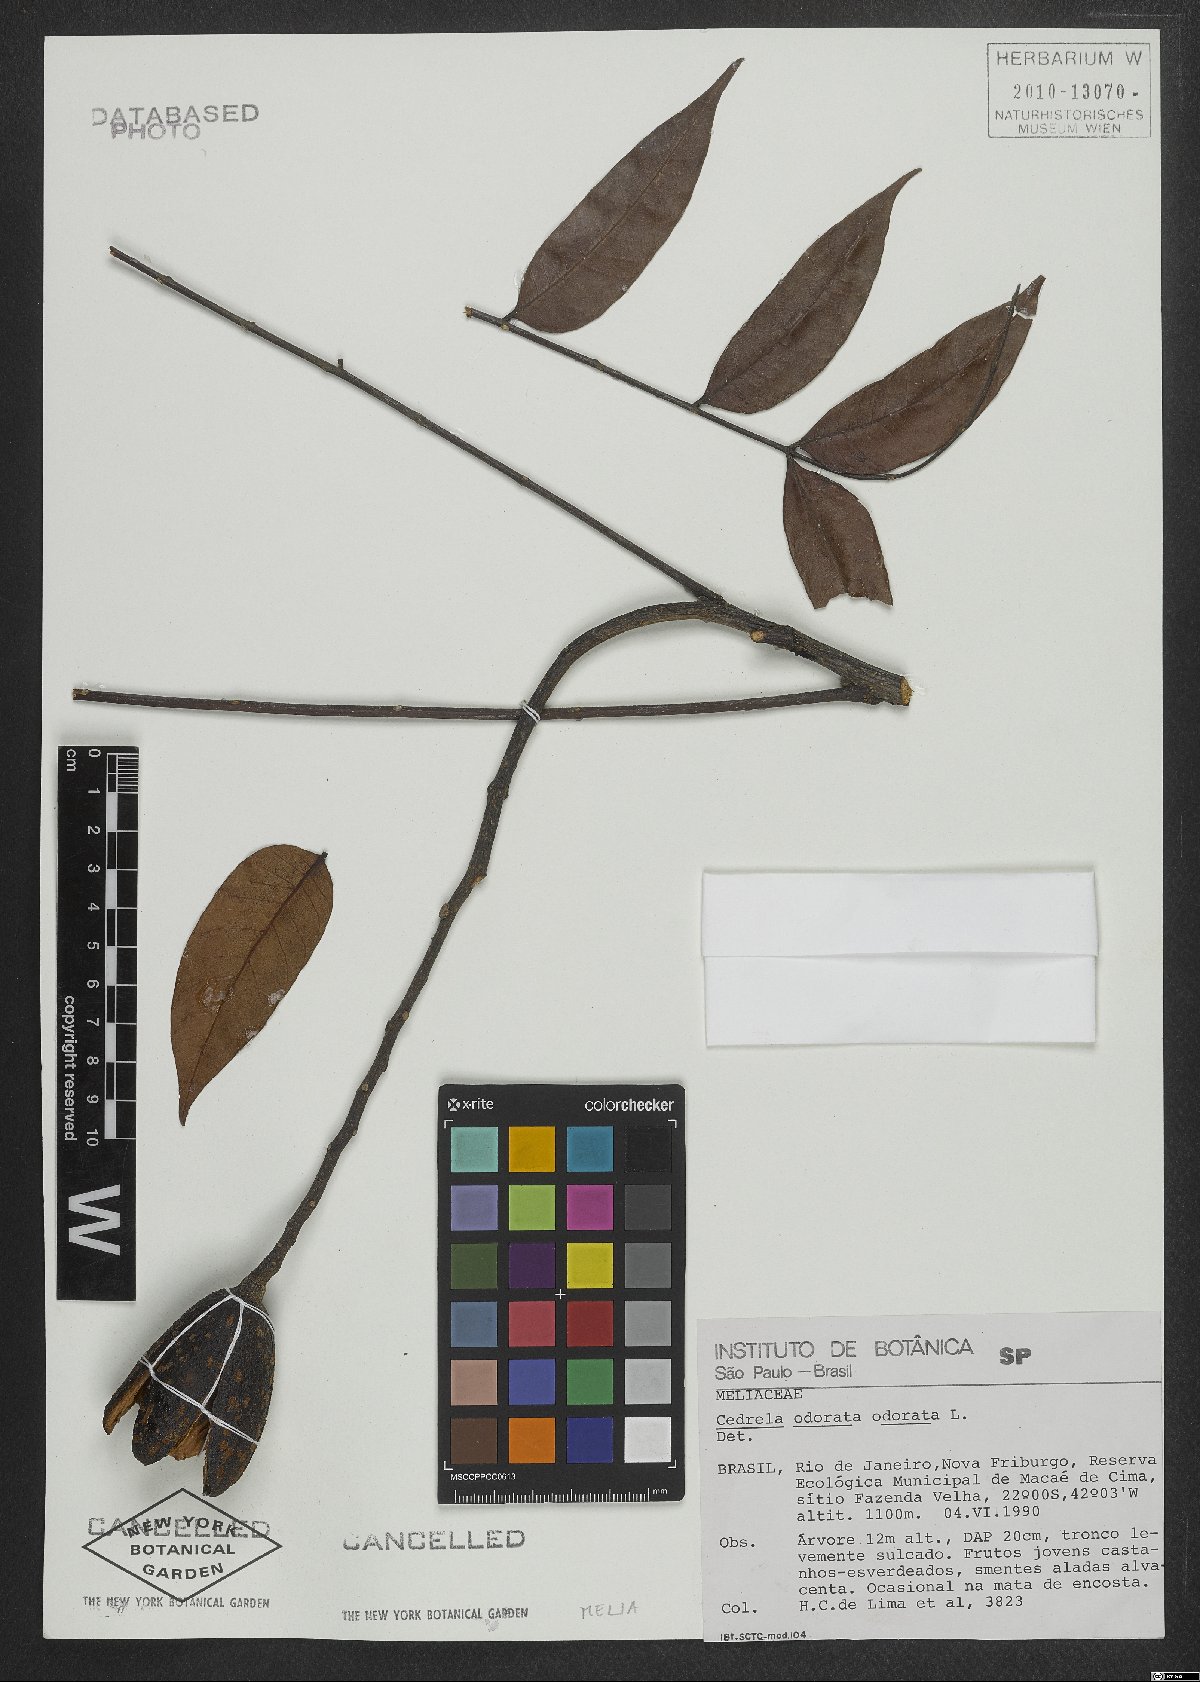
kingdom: Plantae
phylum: Tracheophyta
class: Magnoliopsida
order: Sapindales
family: Meliaceae
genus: Cedrela
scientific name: Cedrela odorata
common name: Red cedar
